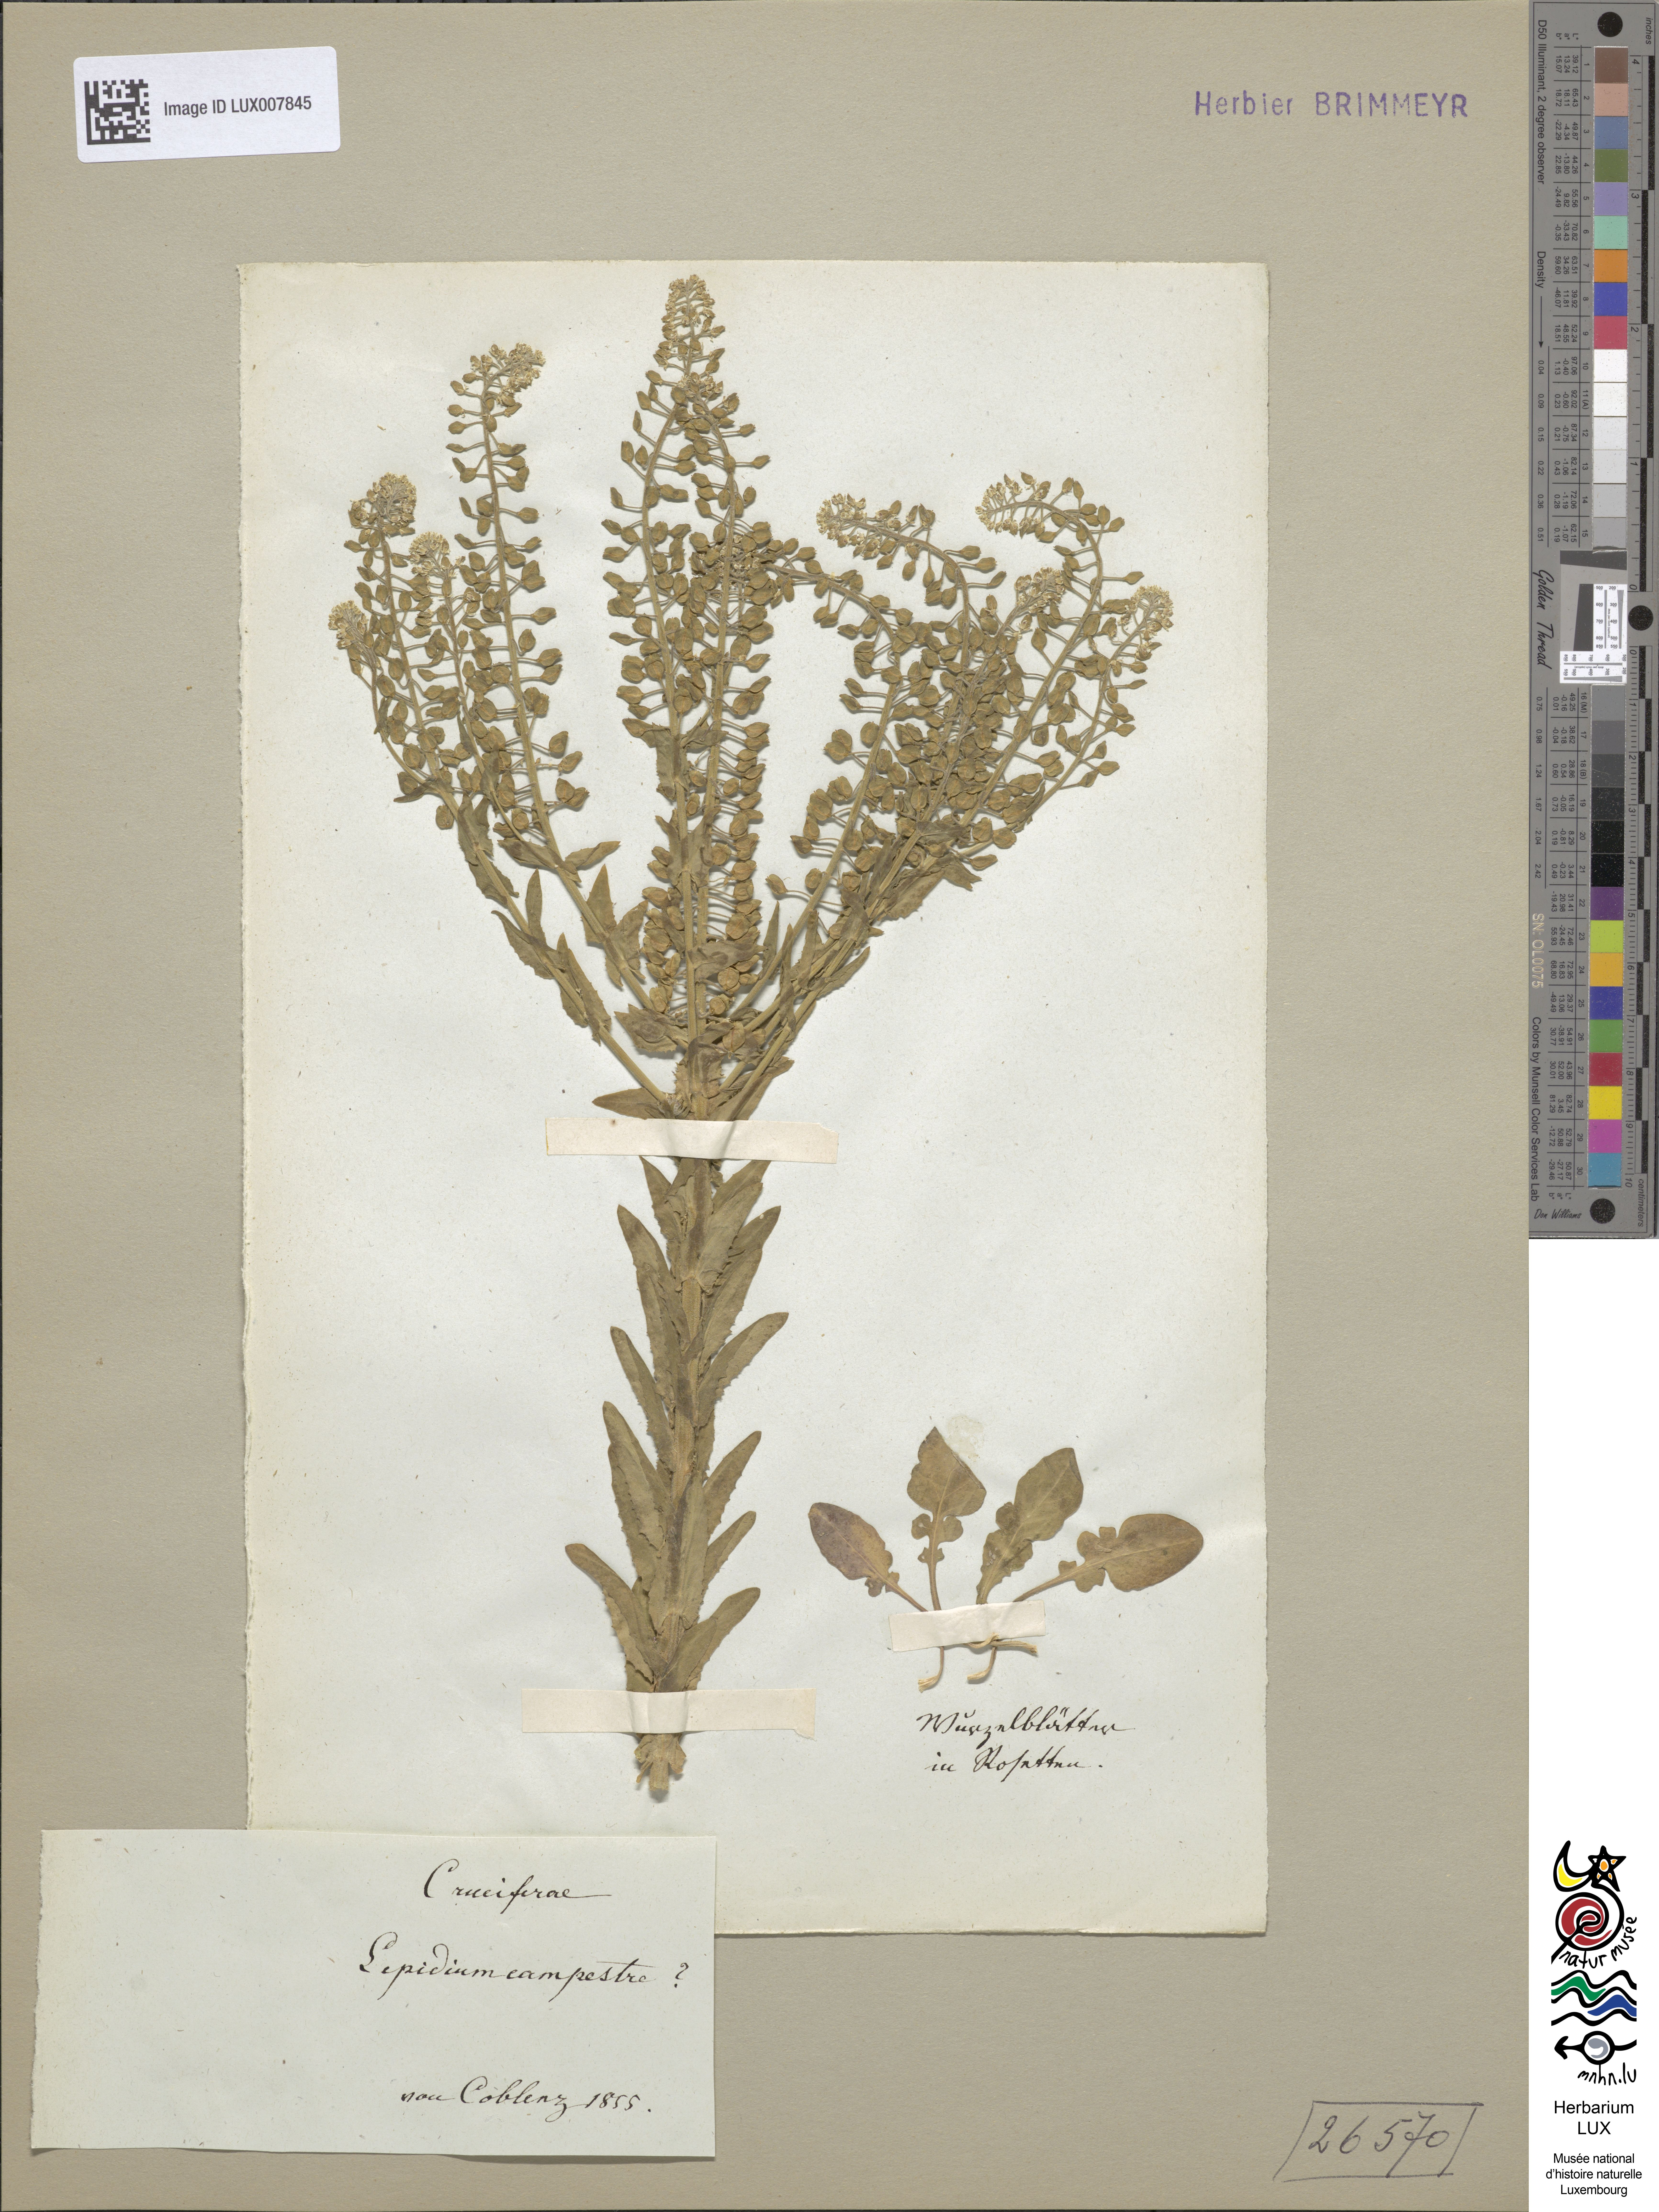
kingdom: Plantae
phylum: Tracheophyta
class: Magnoliopsida
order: Brassicales
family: Brassicaceae
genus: Lepidium
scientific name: Lepidium campestre
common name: Field pepperwort
